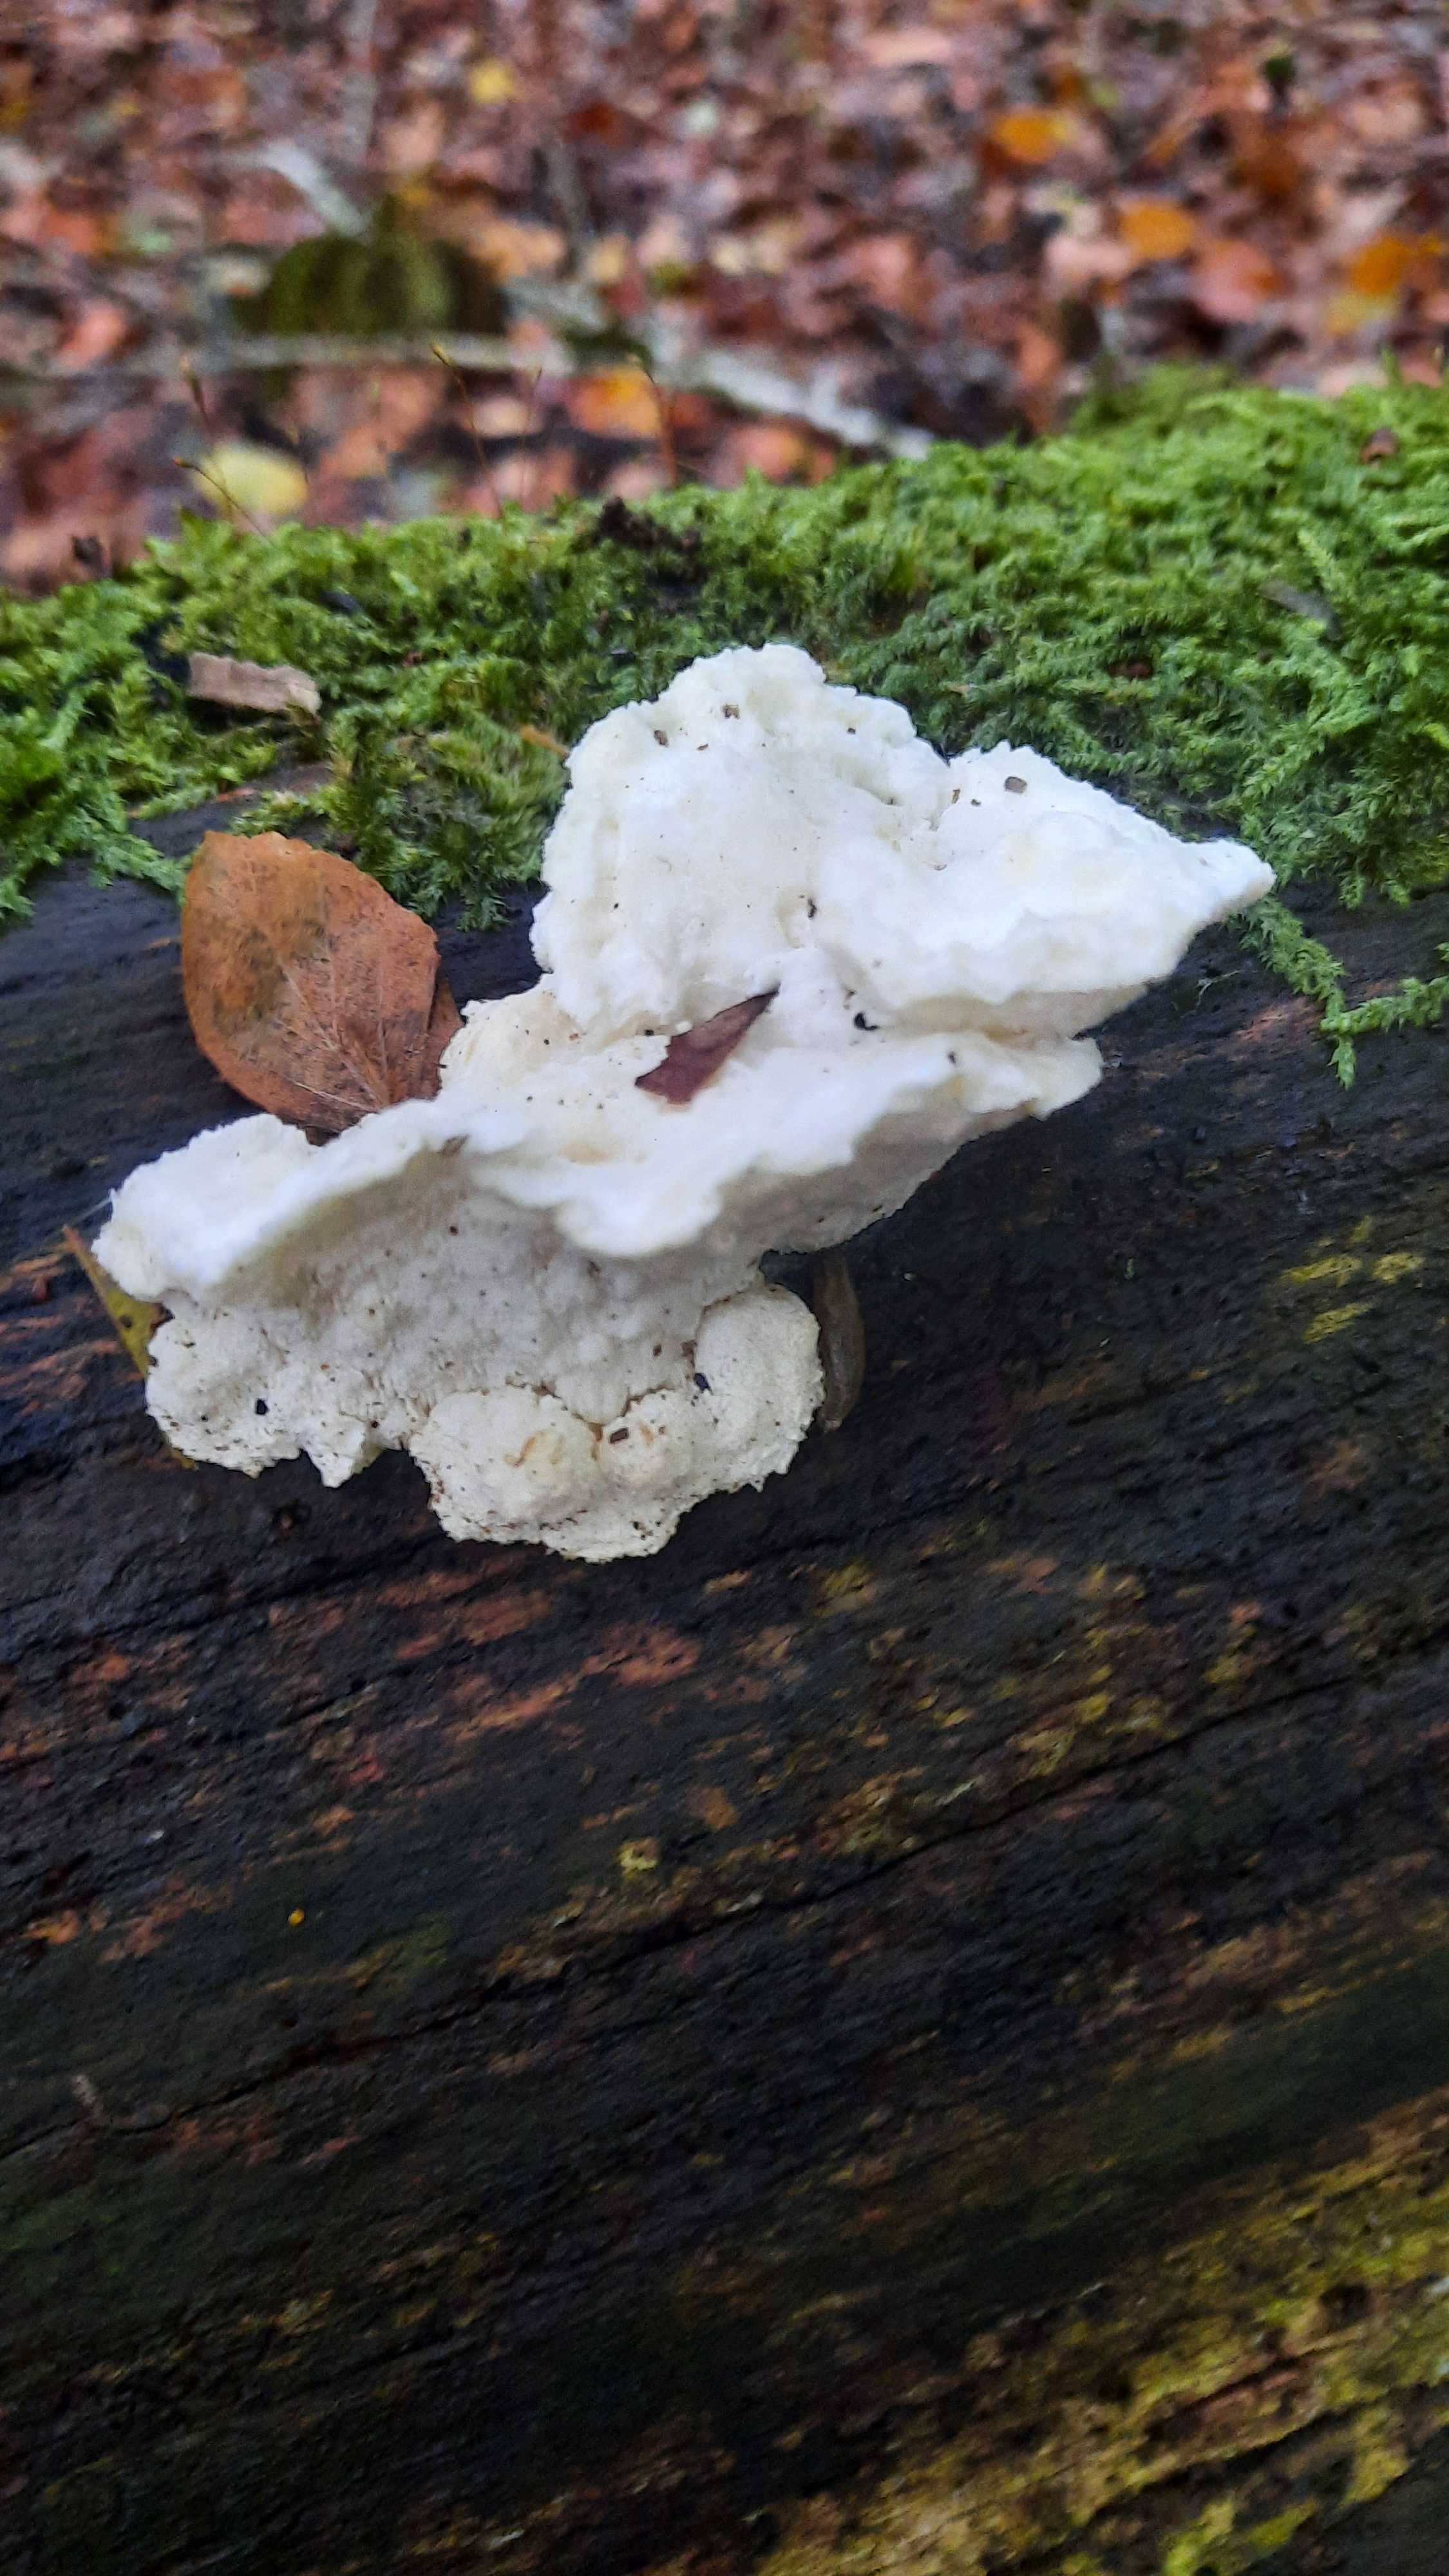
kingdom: Fungi
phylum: Basidiomycota
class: Agaricomycetes
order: Polyporales
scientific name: Polyporales
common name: poresvampordenen
